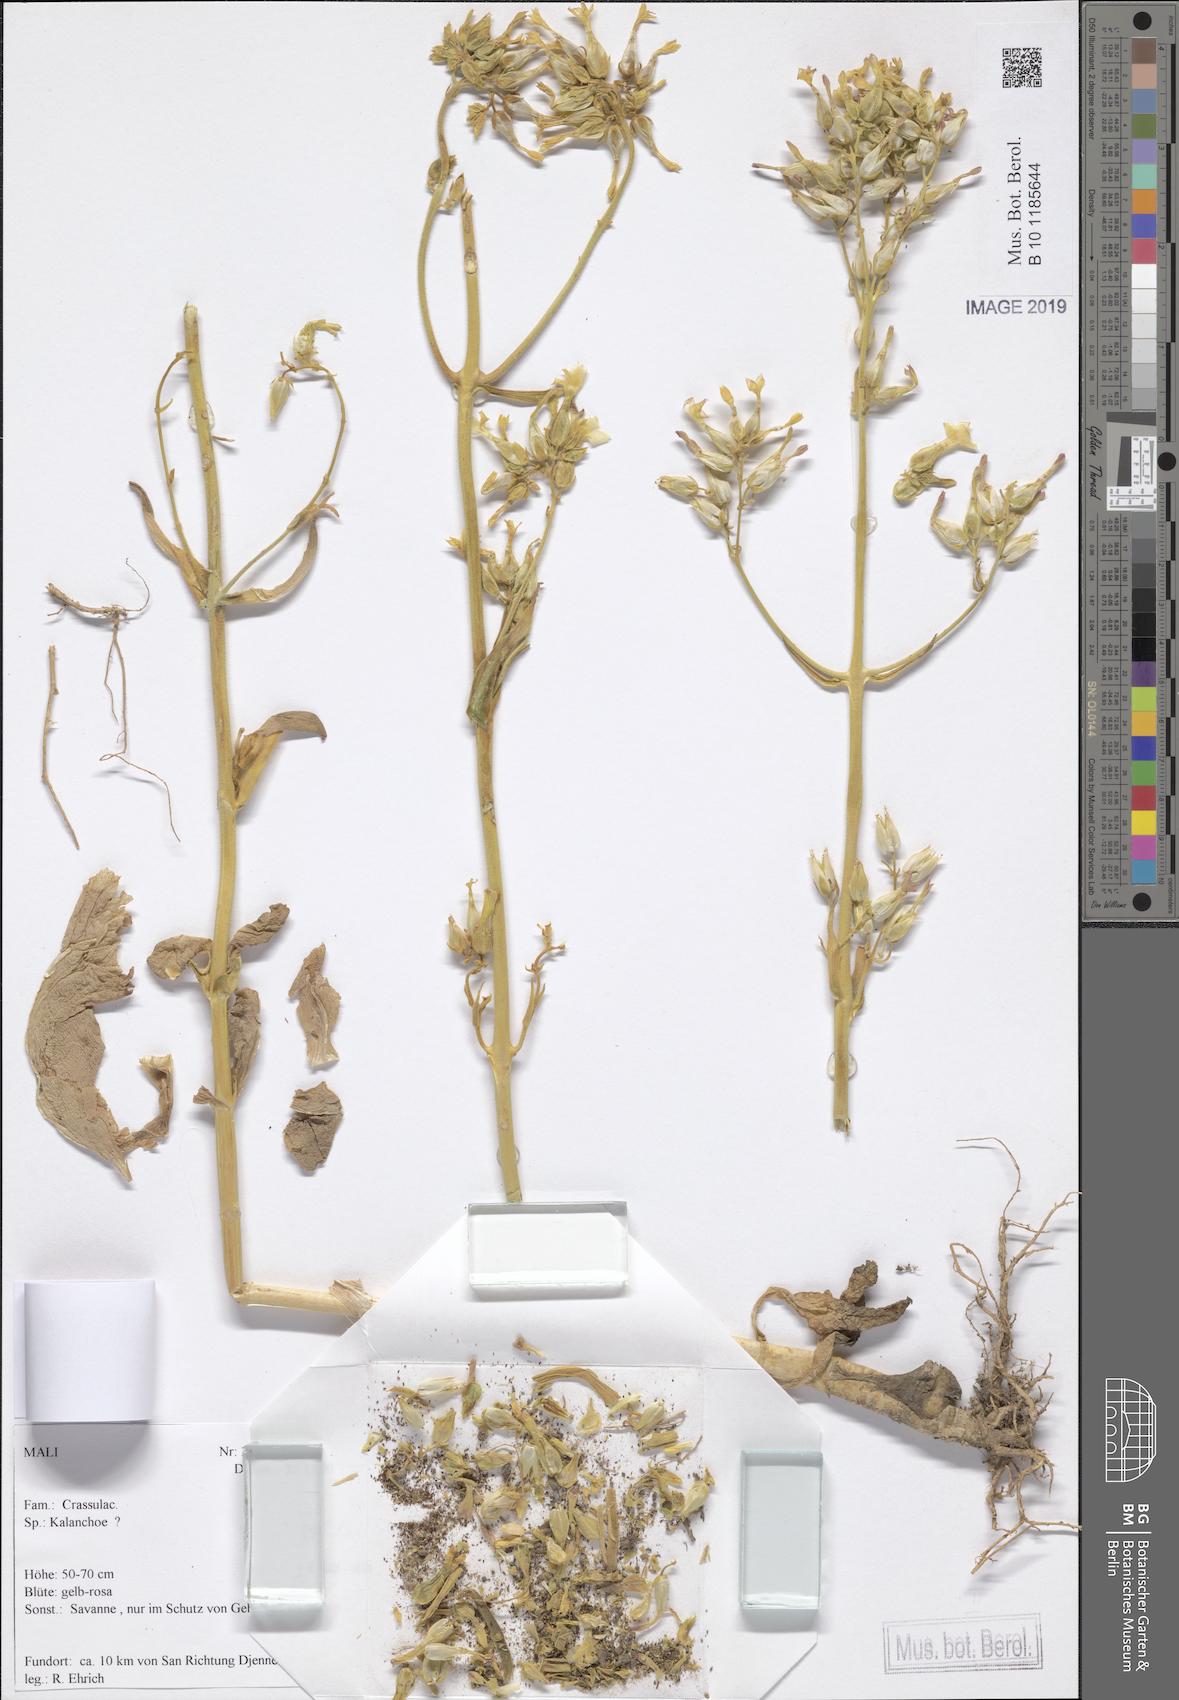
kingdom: Plantae
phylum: Tracheophyta
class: Magnoliopsida
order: Saxifragales
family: Crassulaceae
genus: Kalanchoe
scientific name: Kalanchoe lanceolata
